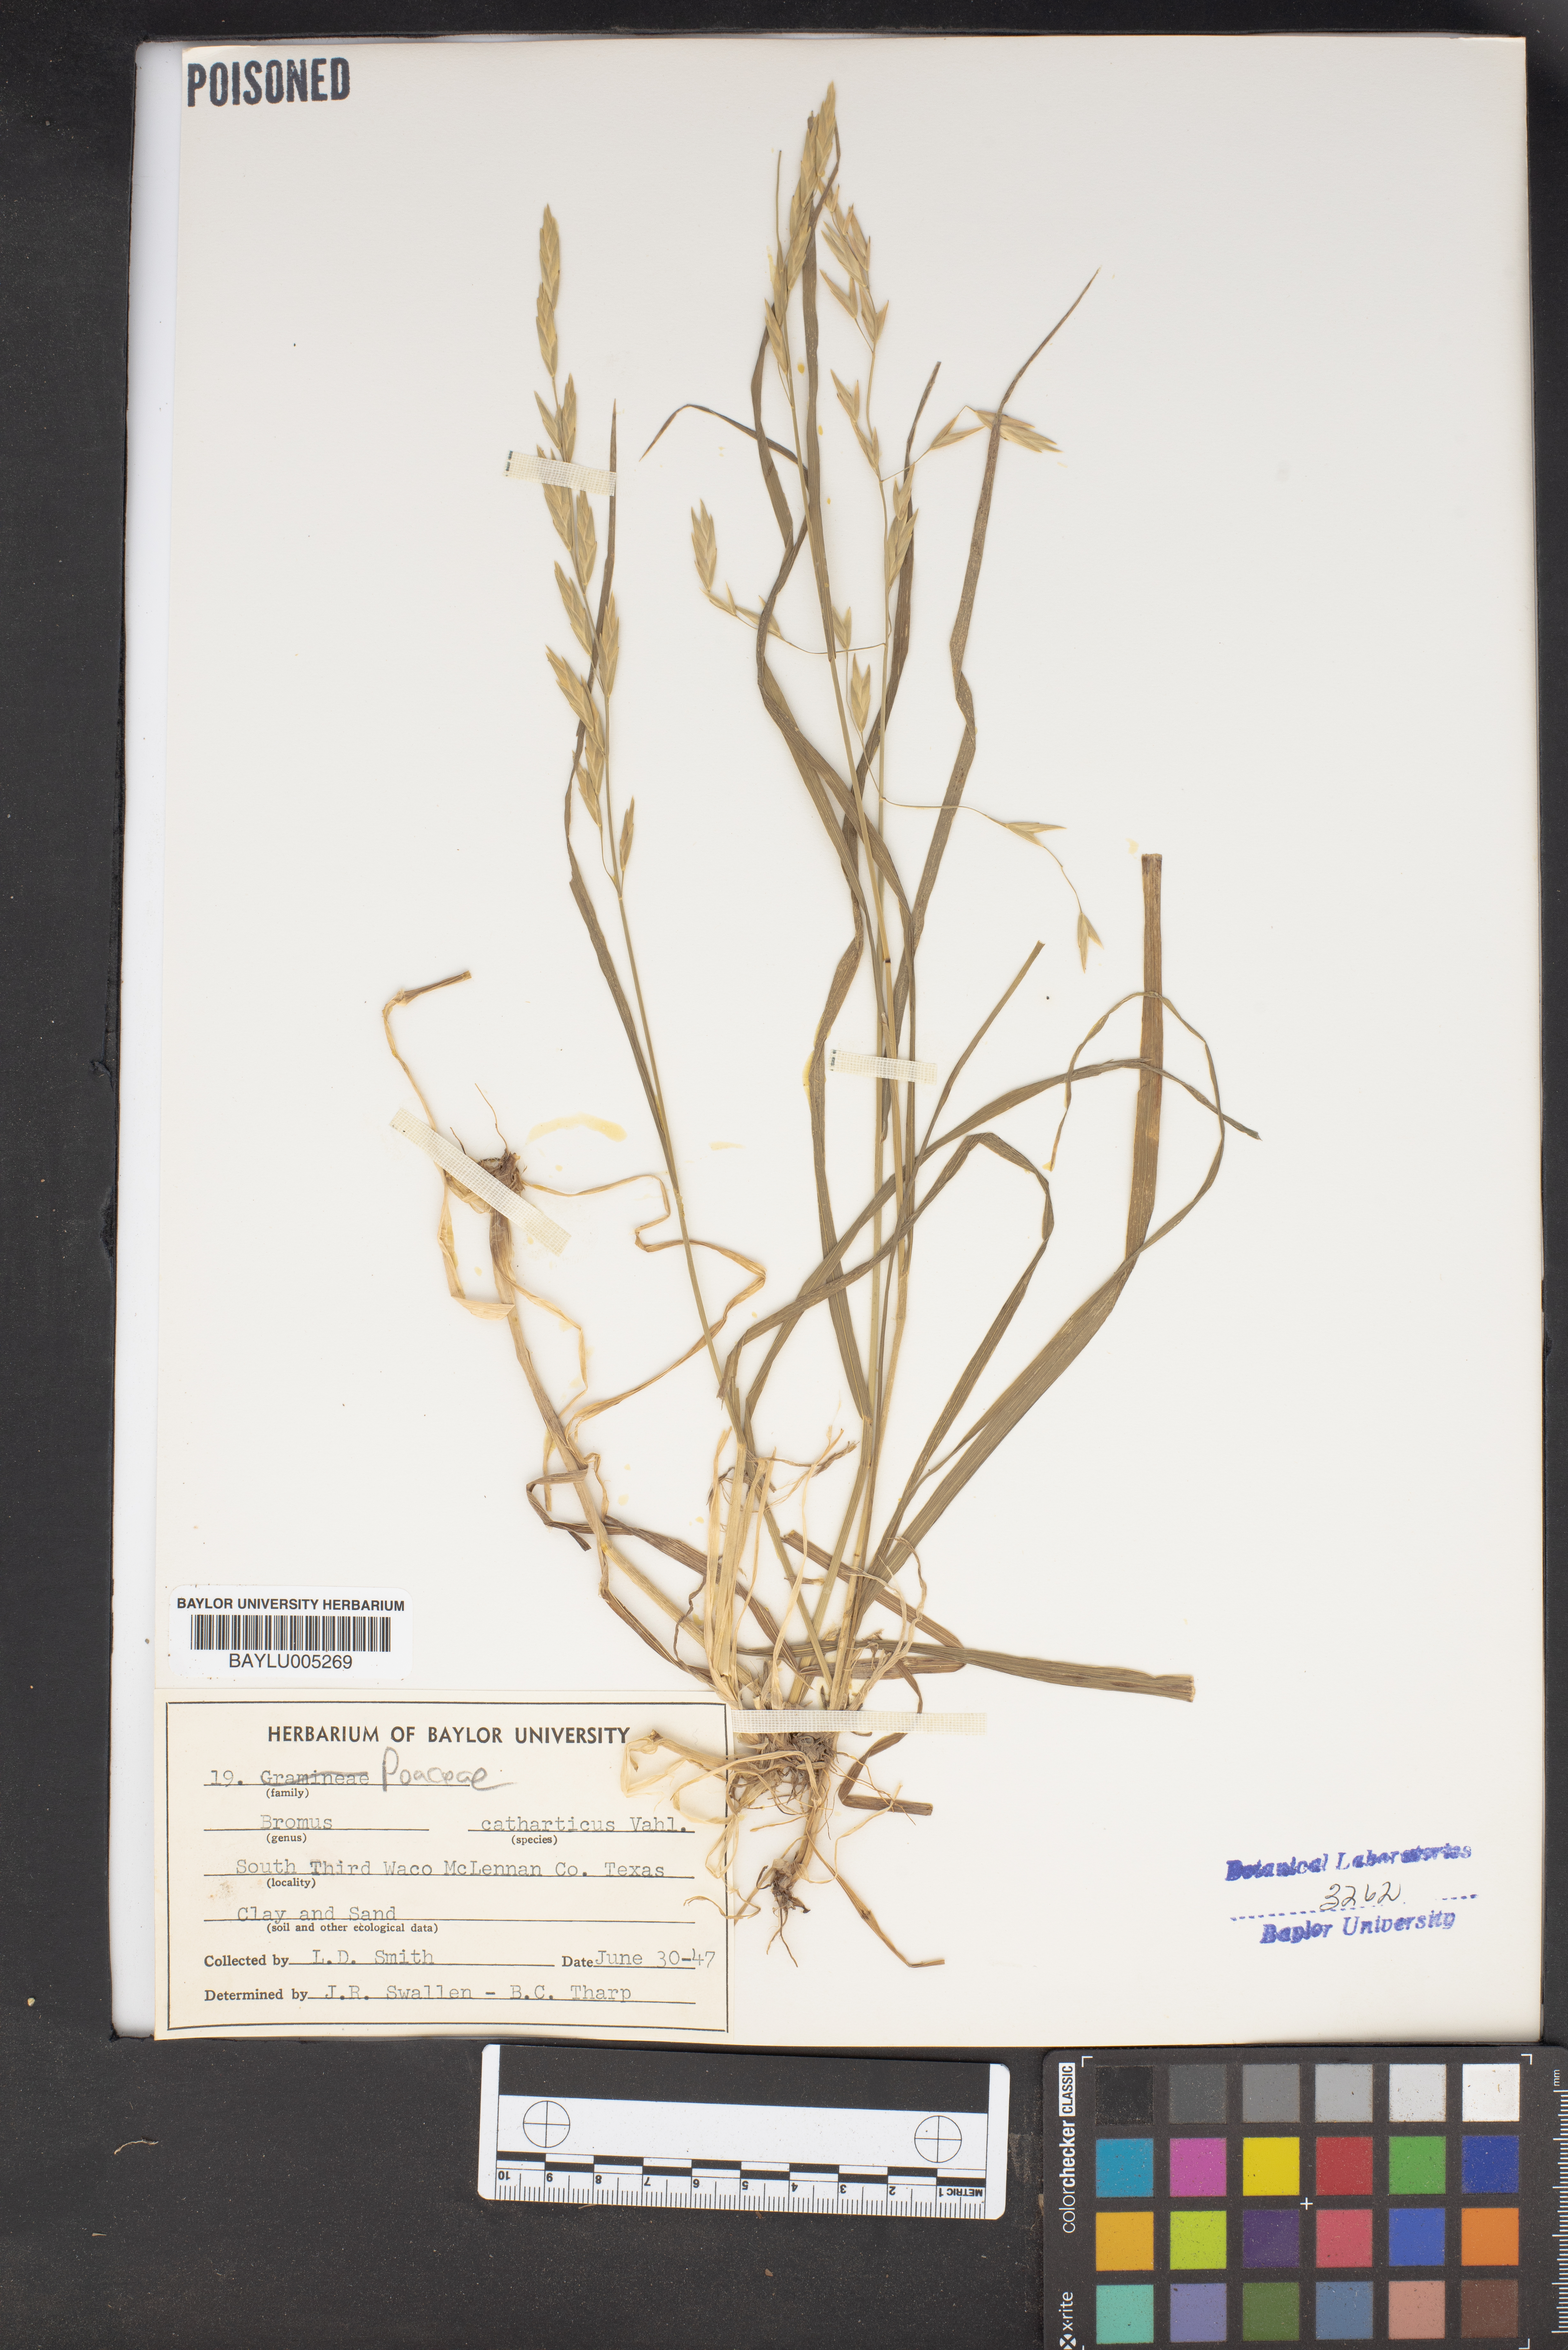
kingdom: Plantae
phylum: Tracheophyta
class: Liliopsida
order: Poales
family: Poaceae
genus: Bromus
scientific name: Bromus catharticus
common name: Rescuegrass
